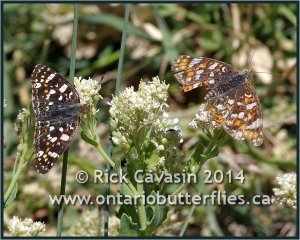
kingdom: Animalia
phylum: Arthropoda
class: Insecta
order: Lepidoptera
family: Nymphalidae
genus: Phyciodes
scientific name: Phyciodes tharos
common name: Field Crescent
